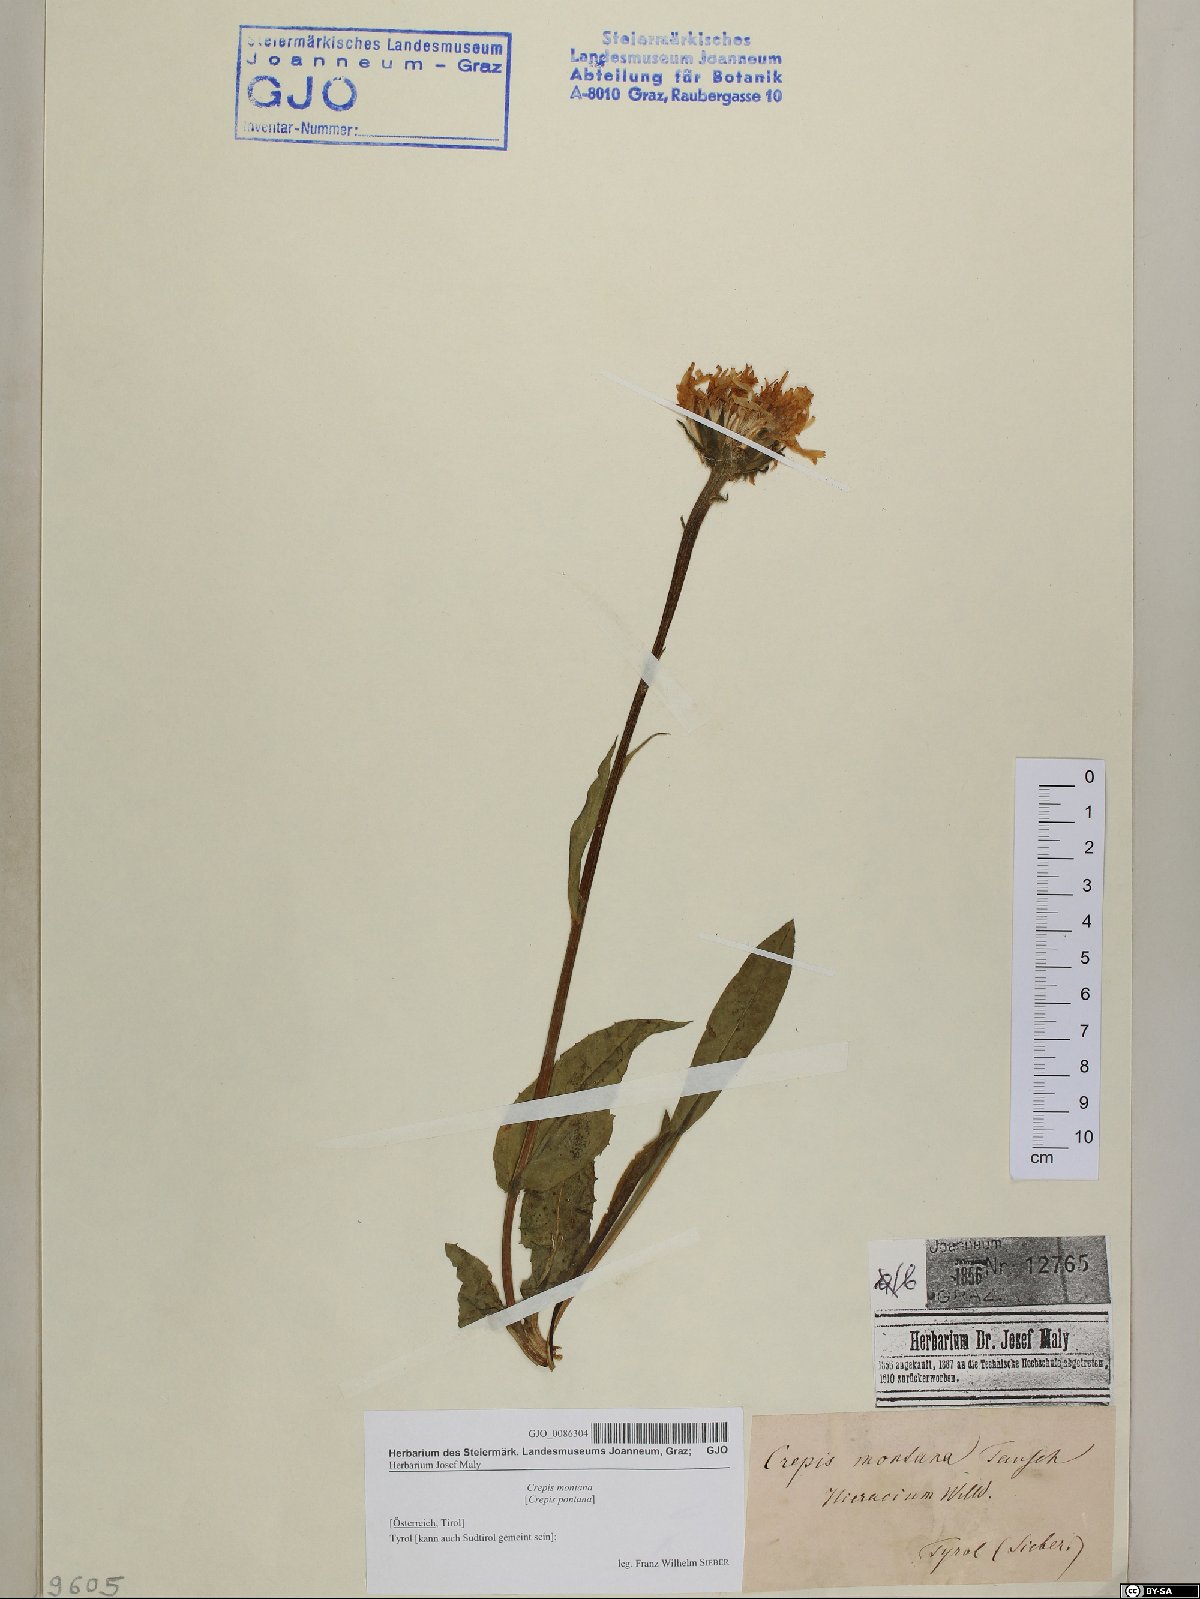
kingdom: Plantae
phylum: Tracheophyta
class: Magnoliopsida
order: Asterales
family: Asteraceae
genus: Crepis
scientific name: Crepis pontana
